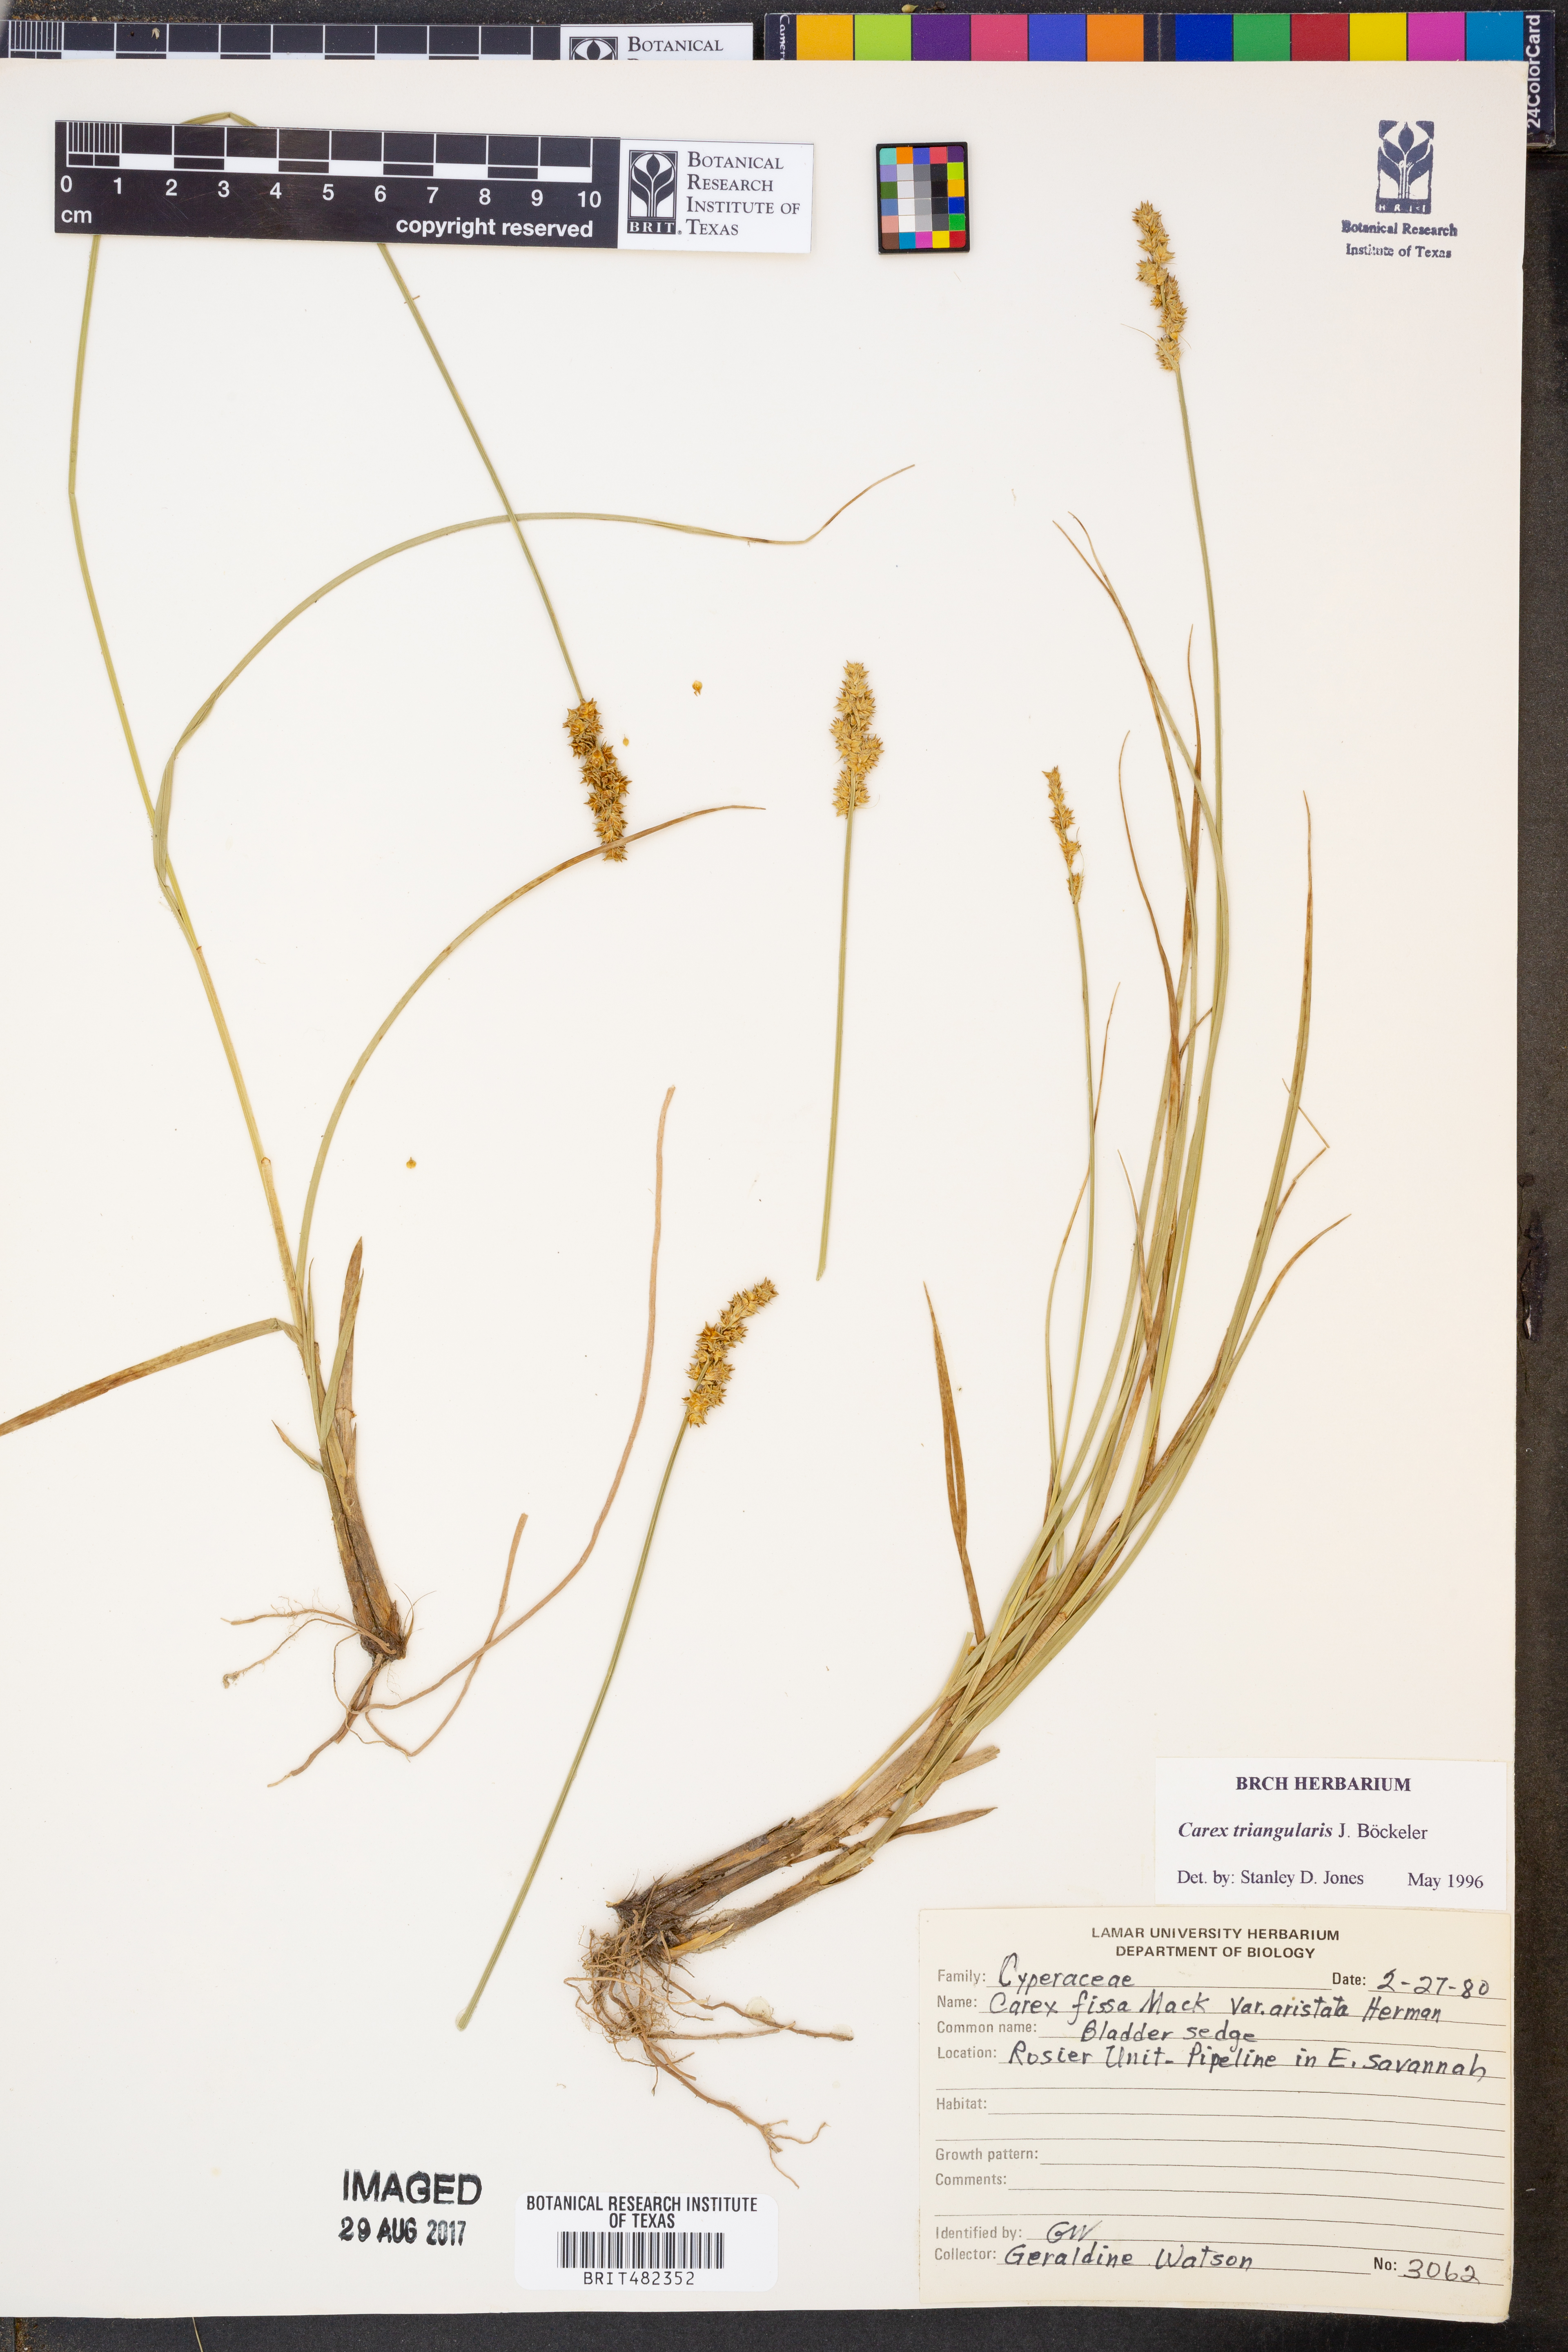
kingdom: Plantae
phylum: Tracheophyta
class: Liliopsida
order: Poales
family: Cyperaceae
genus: Carex
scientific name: Carex triangularis
